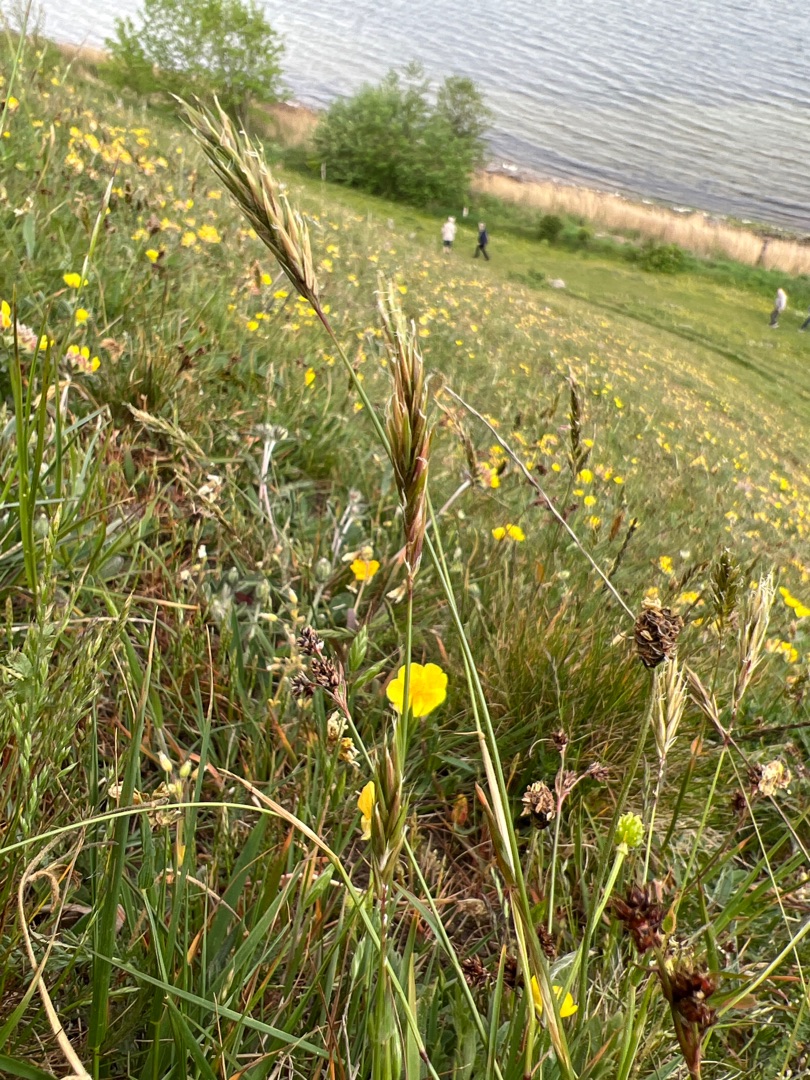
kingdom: Plantae
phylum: Tracheophyta
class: Liliopsida
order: Poales
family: Poaceae
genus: Anthoxanthum
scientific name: Anthoxanthum odoratum
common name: Vellugtende gulaks
